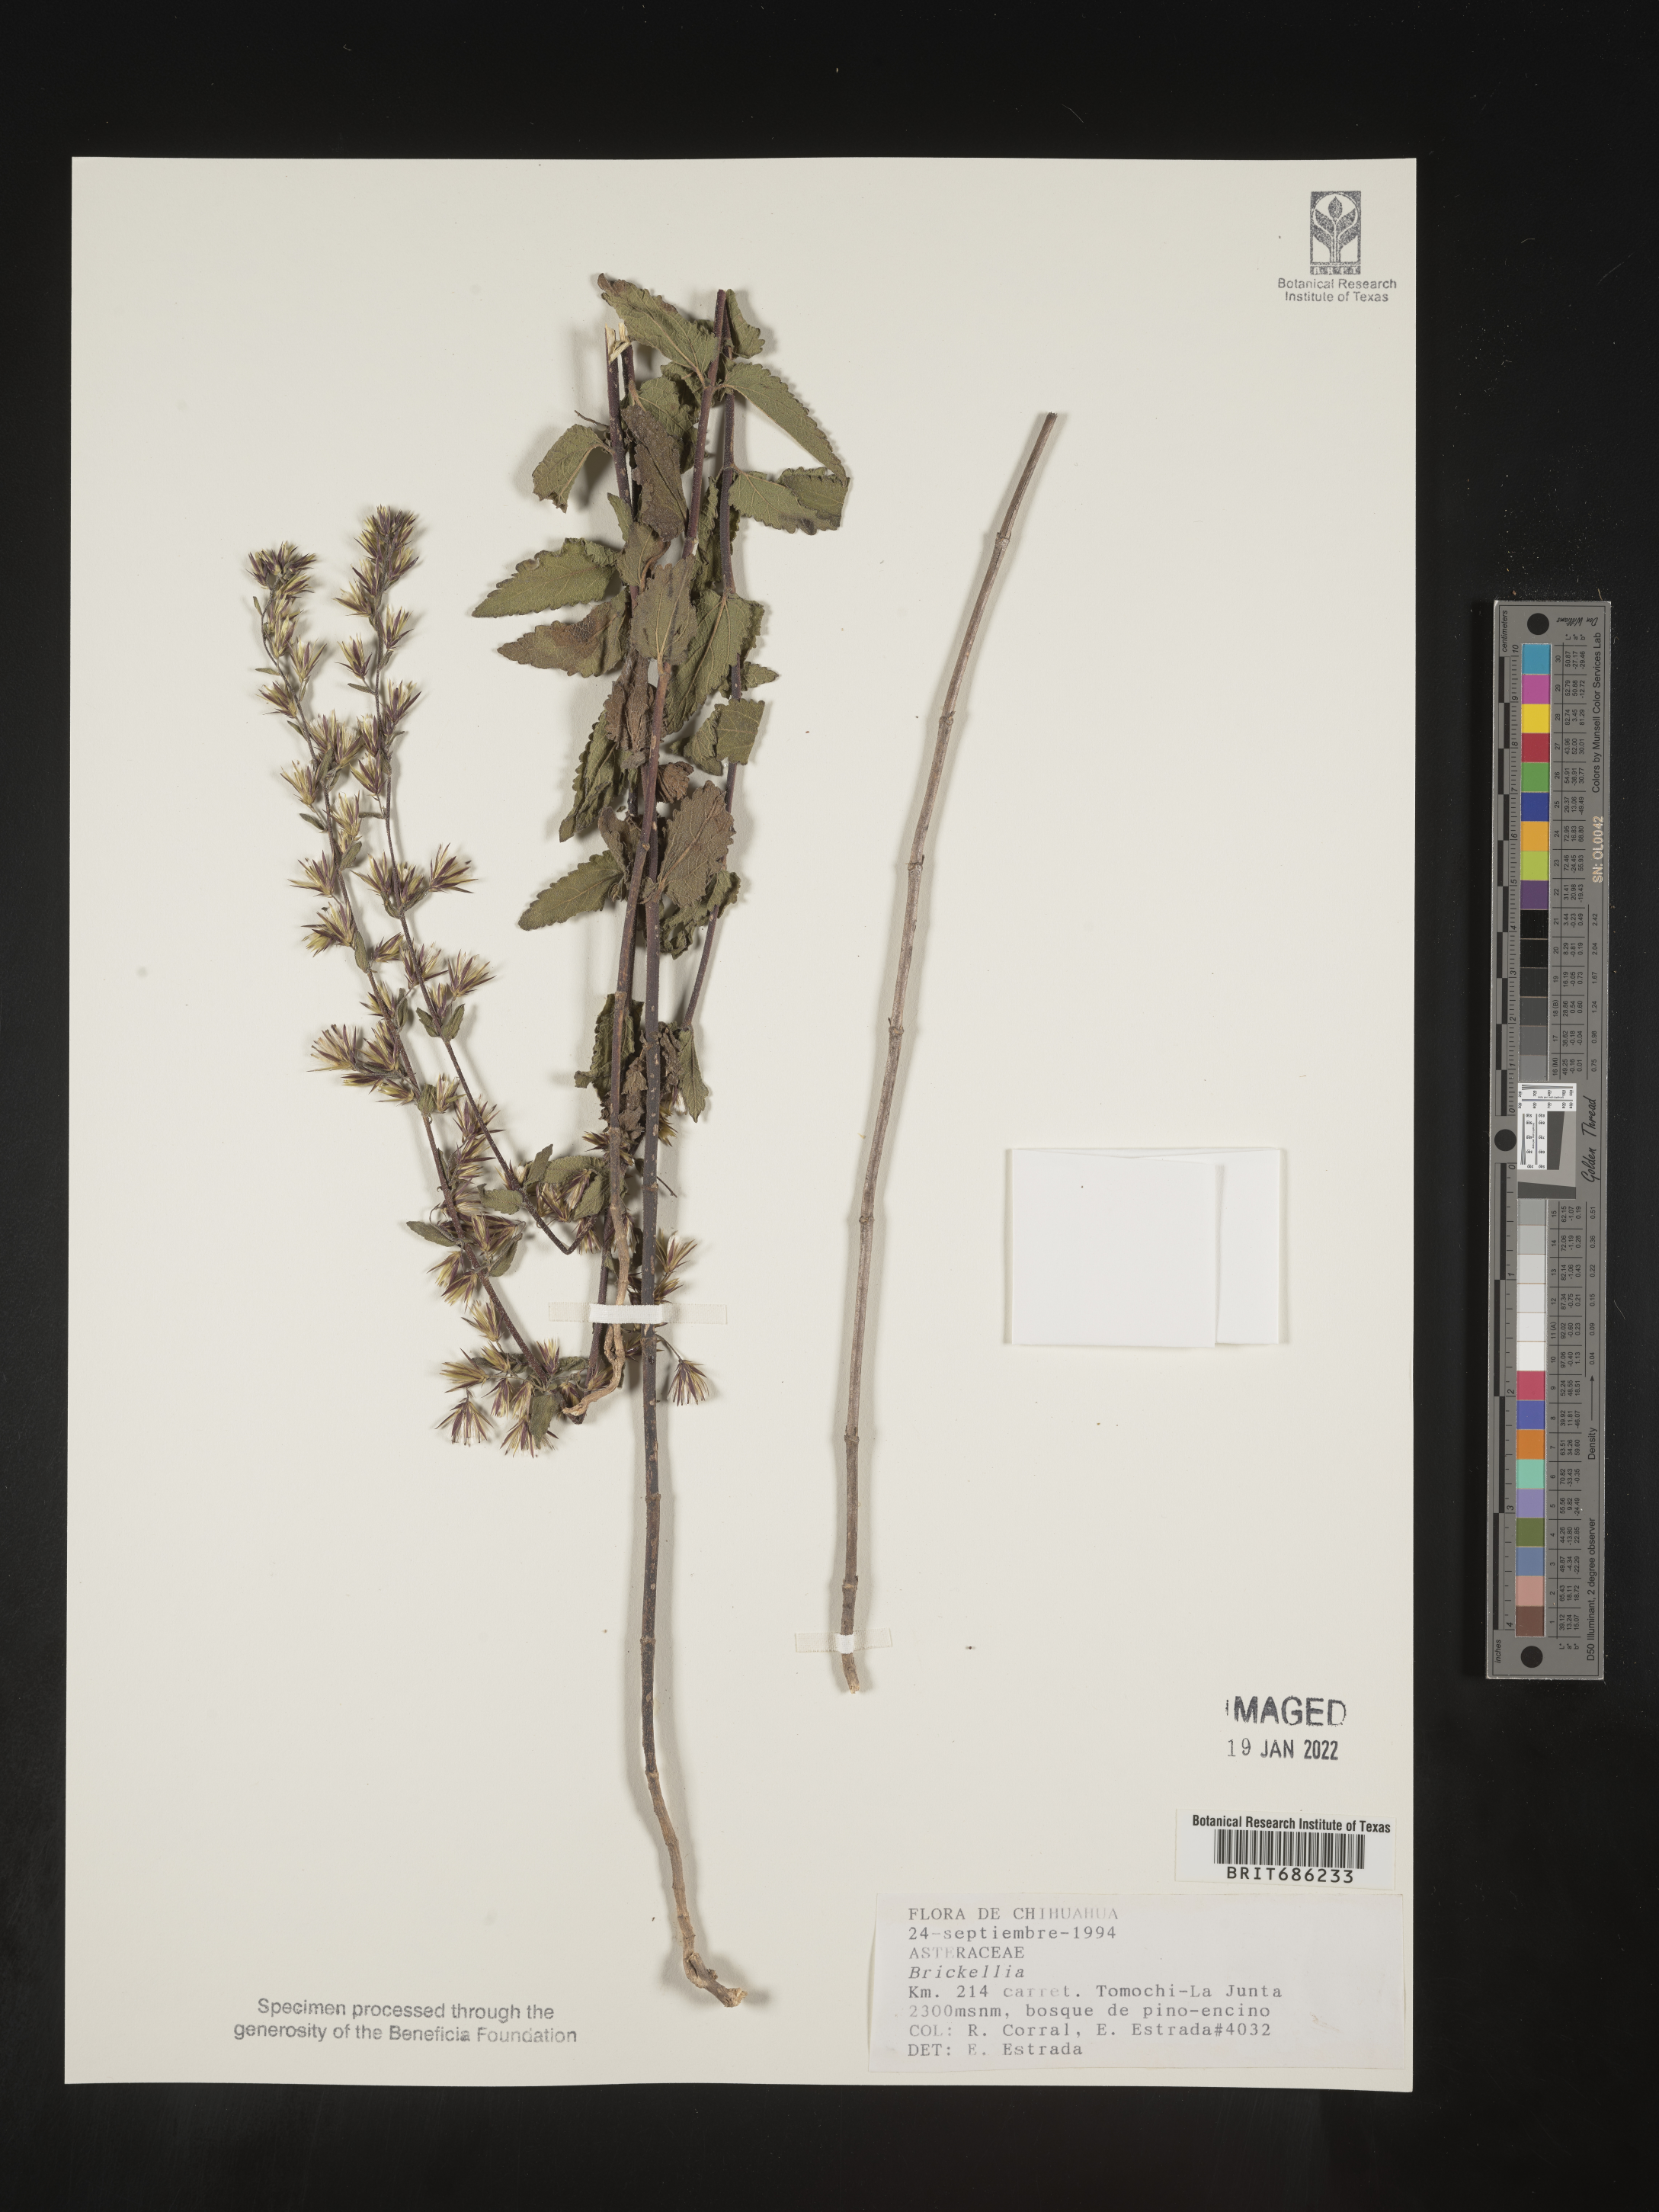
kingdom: Plantae
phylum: Tracheophyta
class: Magnoliopsida
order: Asterales
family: Asteraceae
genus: Brickellia
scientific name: Brickellia
